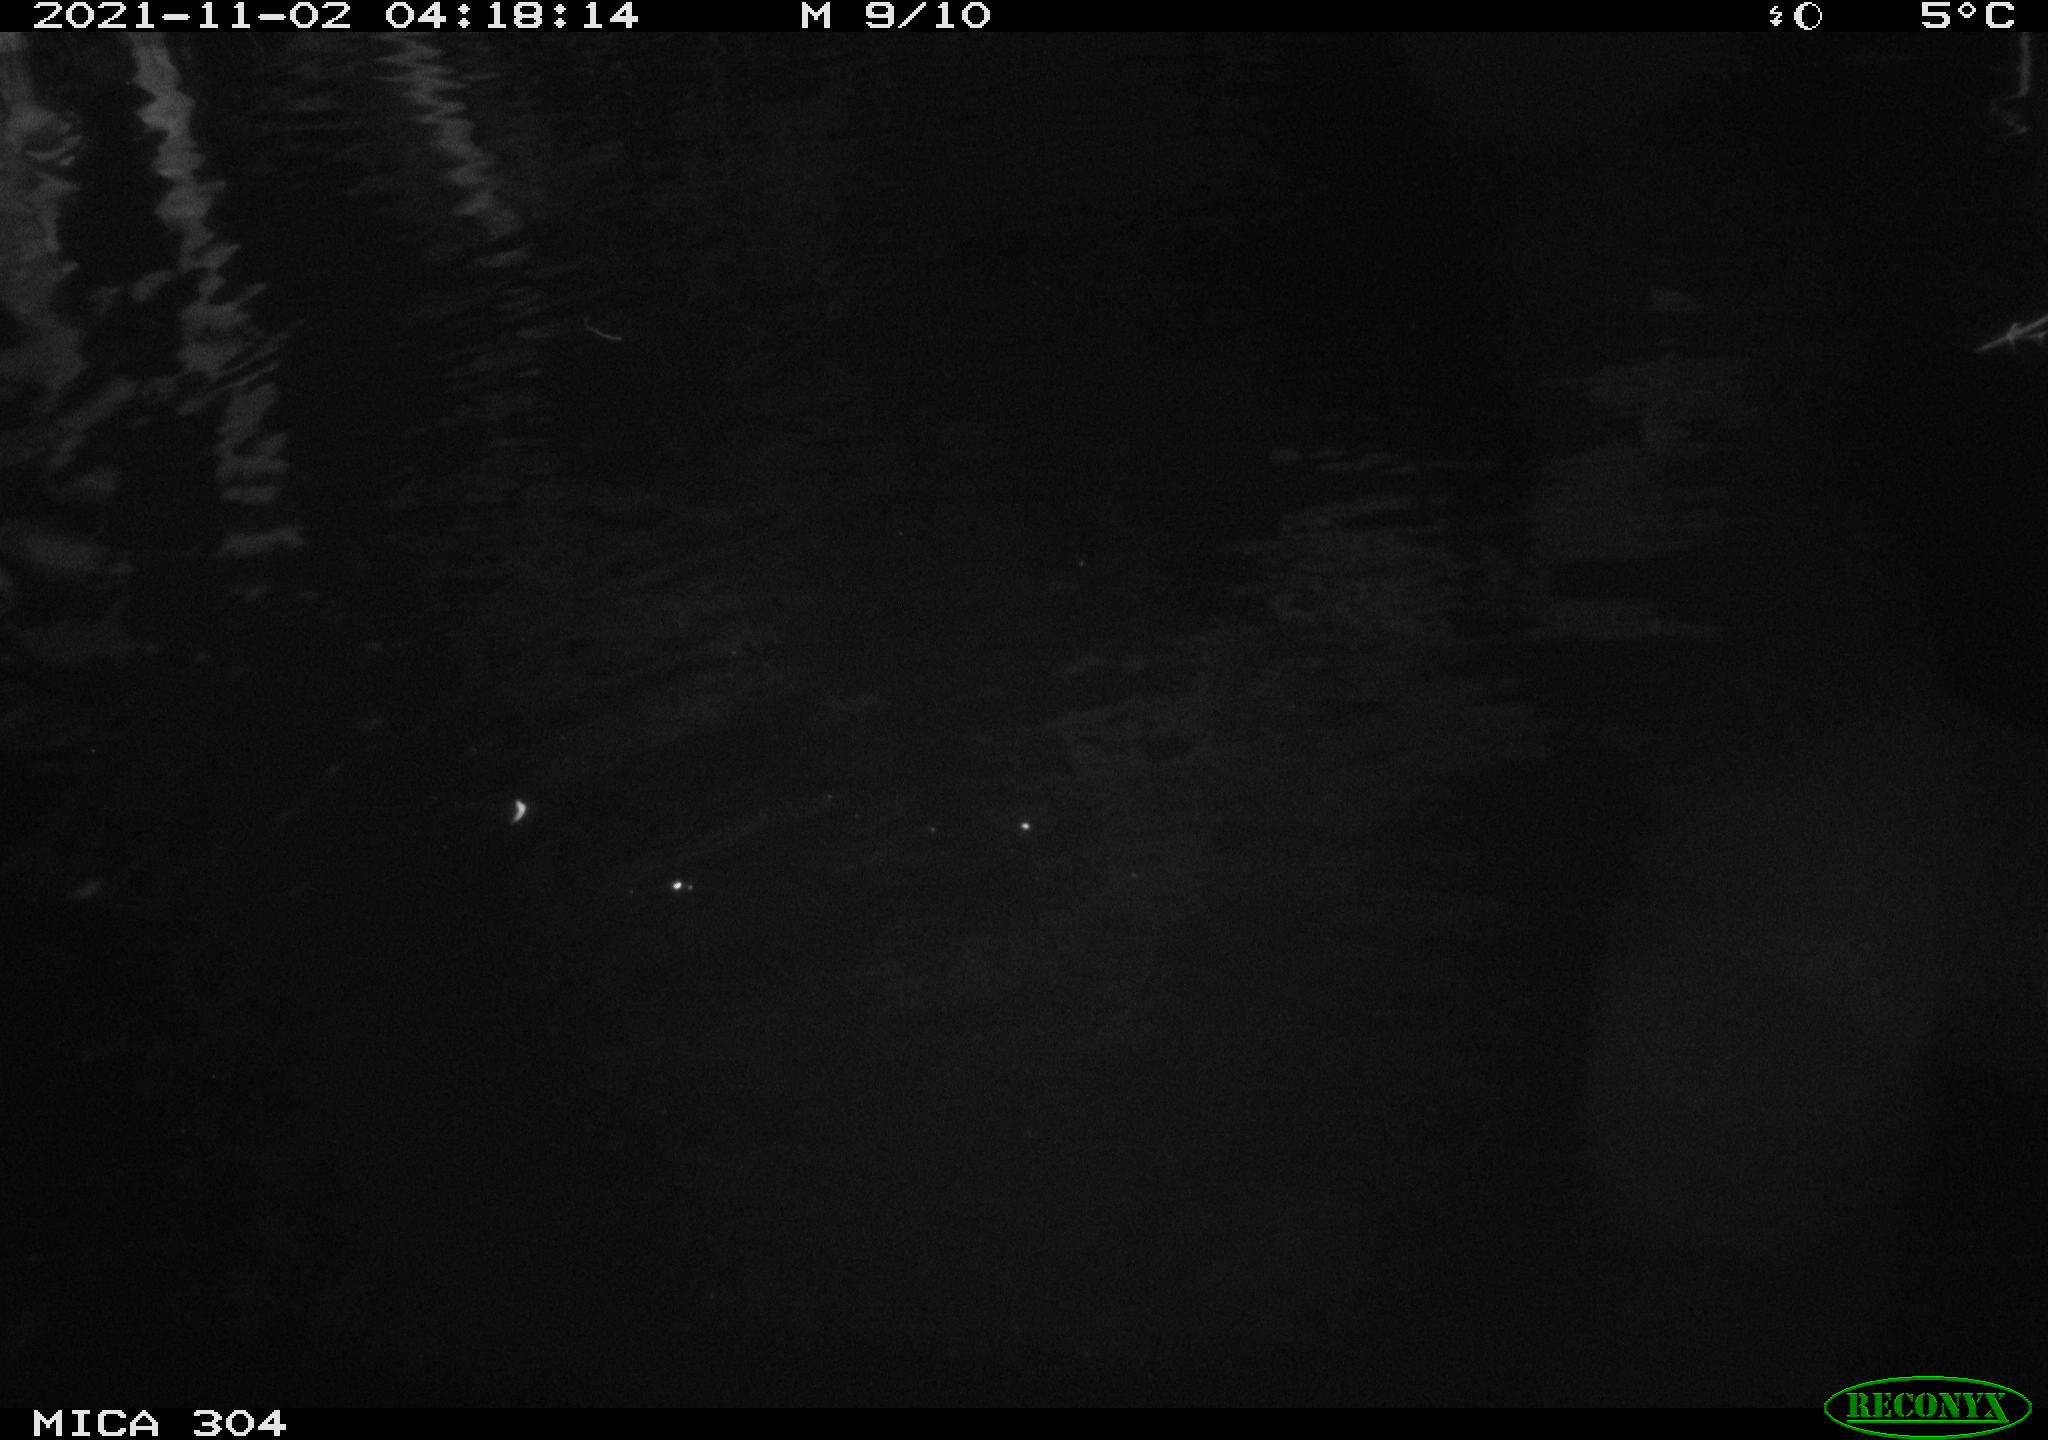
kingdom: Animalia
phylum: Chordata
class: Mammalia
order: Rodentia
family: Cricetidae
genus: Ondatra
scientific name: Ondatra zibethicus
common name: Muskrat
